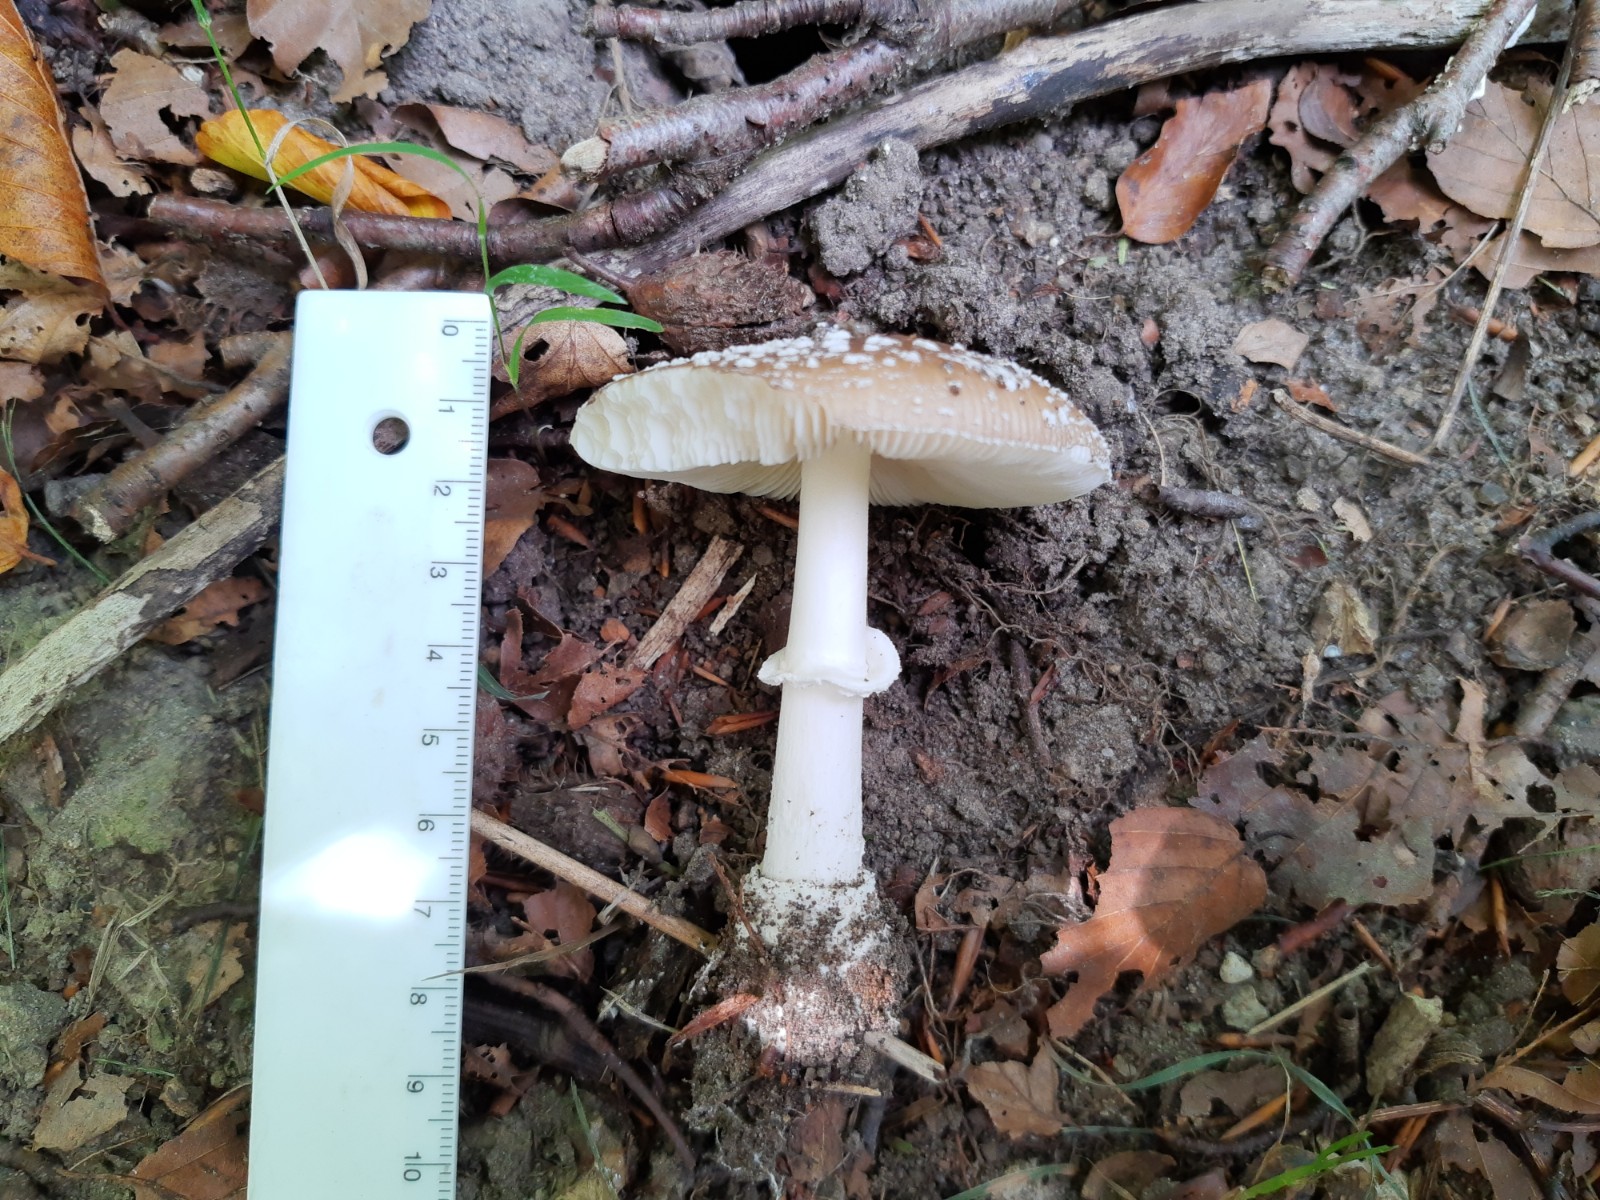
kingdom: Fungi
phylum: Basidiomycota
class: Agaricomycetes
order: Agaricales
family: Amanitaceae
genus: Amanita
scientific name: Amanita pantherina
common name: panter-fluesvamp
